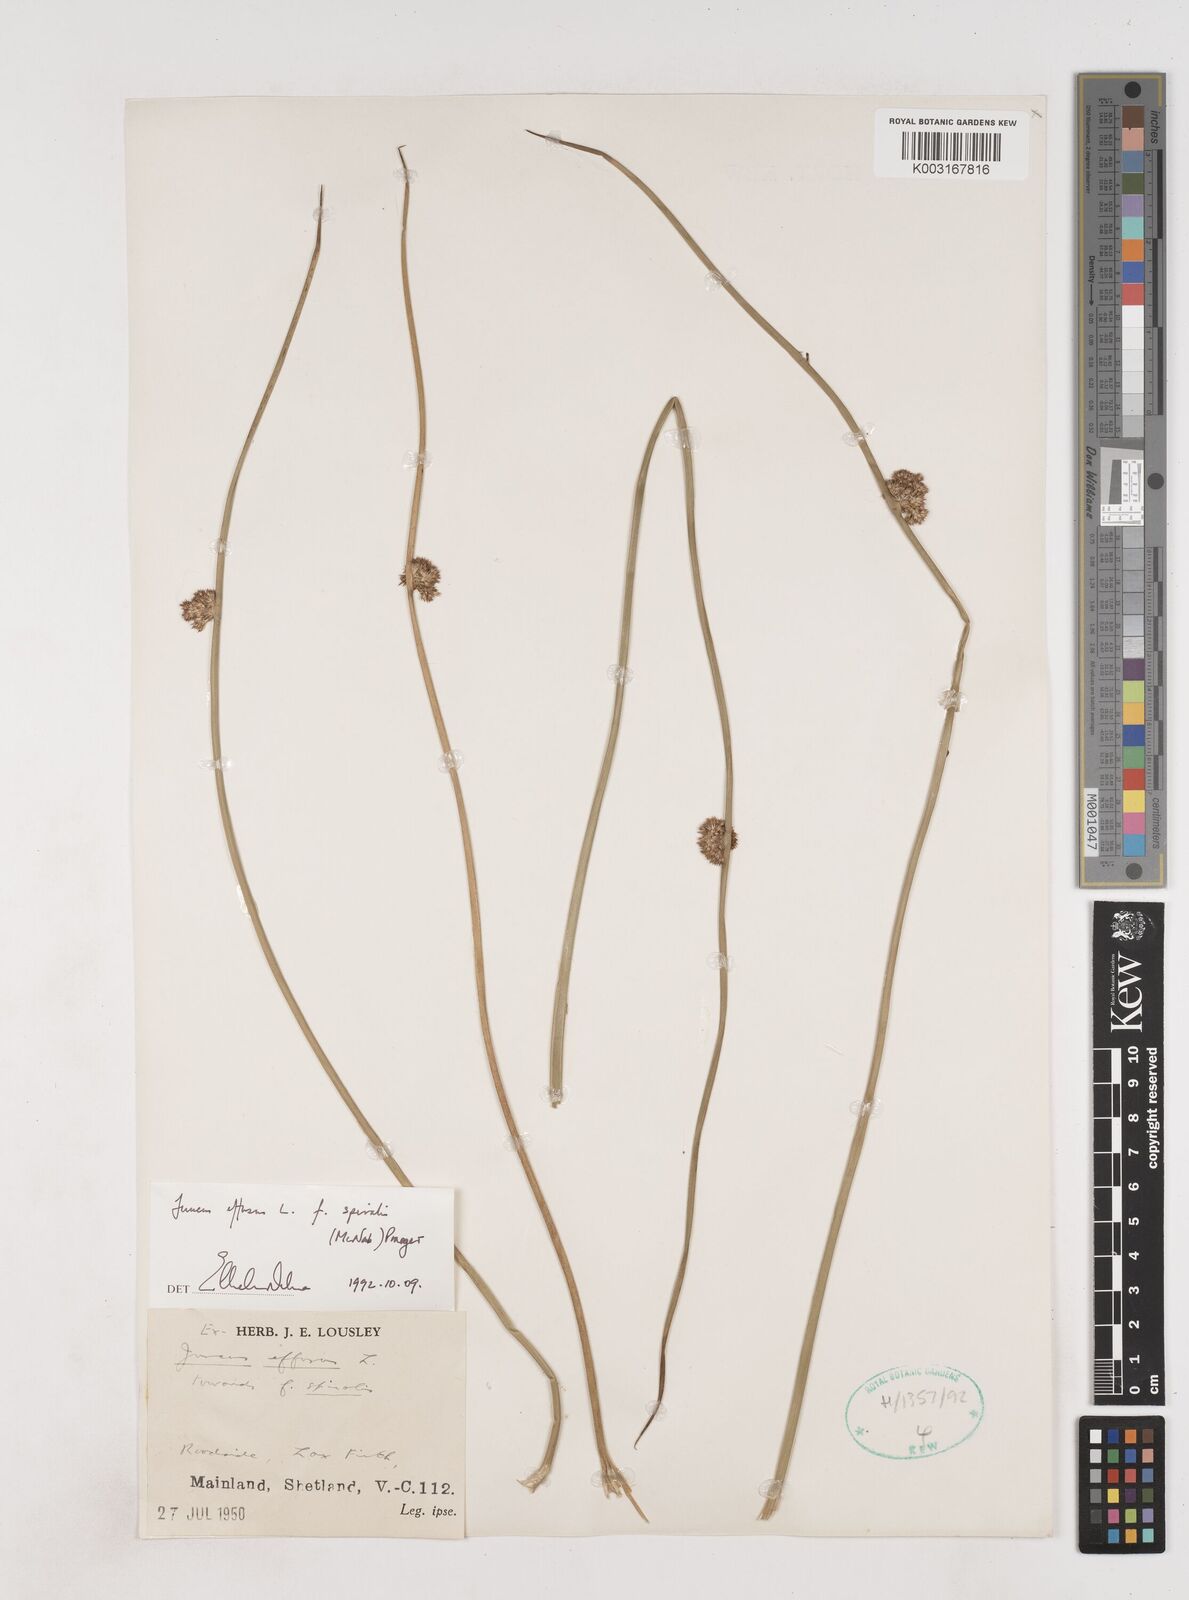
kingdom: Plantae
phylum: Tracheophyta
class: Liliopsida
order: Poales
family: Juncaceae
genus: Juncus
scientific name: Juncus effusus
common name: Soft rush
